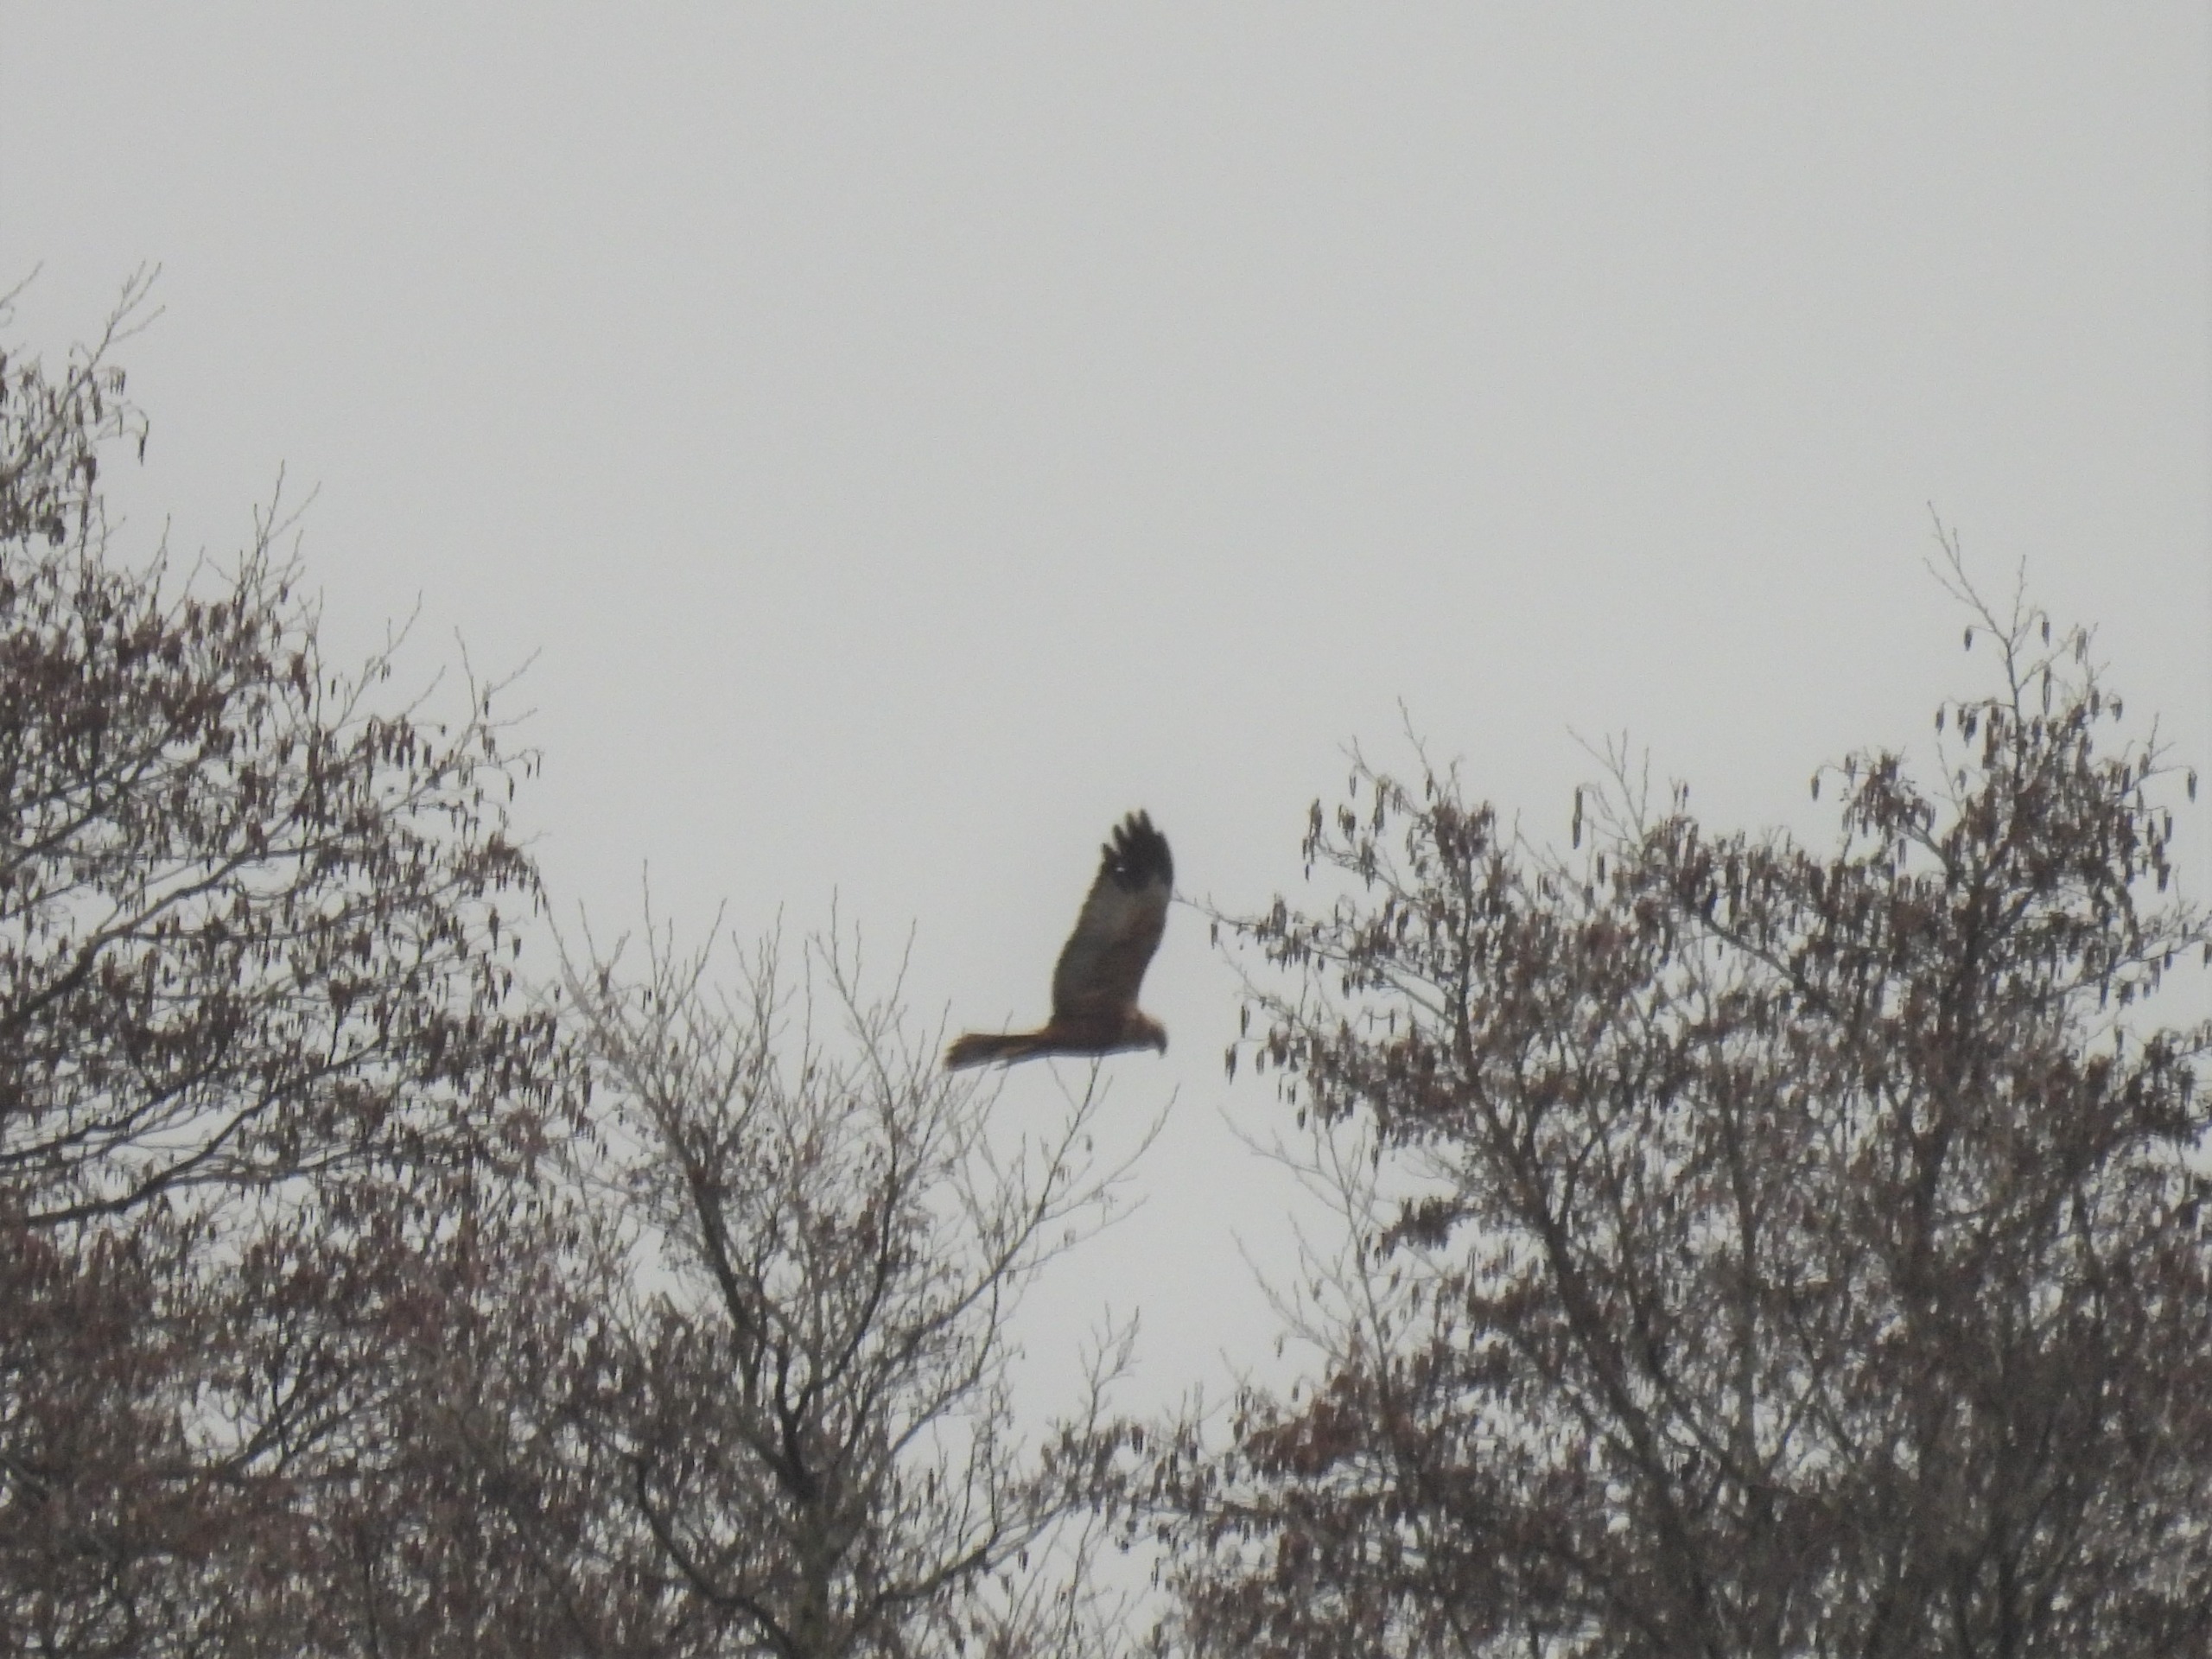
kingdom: Animalia
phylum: Chordata
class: Aves
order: Accipitriformes
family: Accipitridae
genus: Circus
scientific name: Circus aeruginosus
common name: Rørhøg
